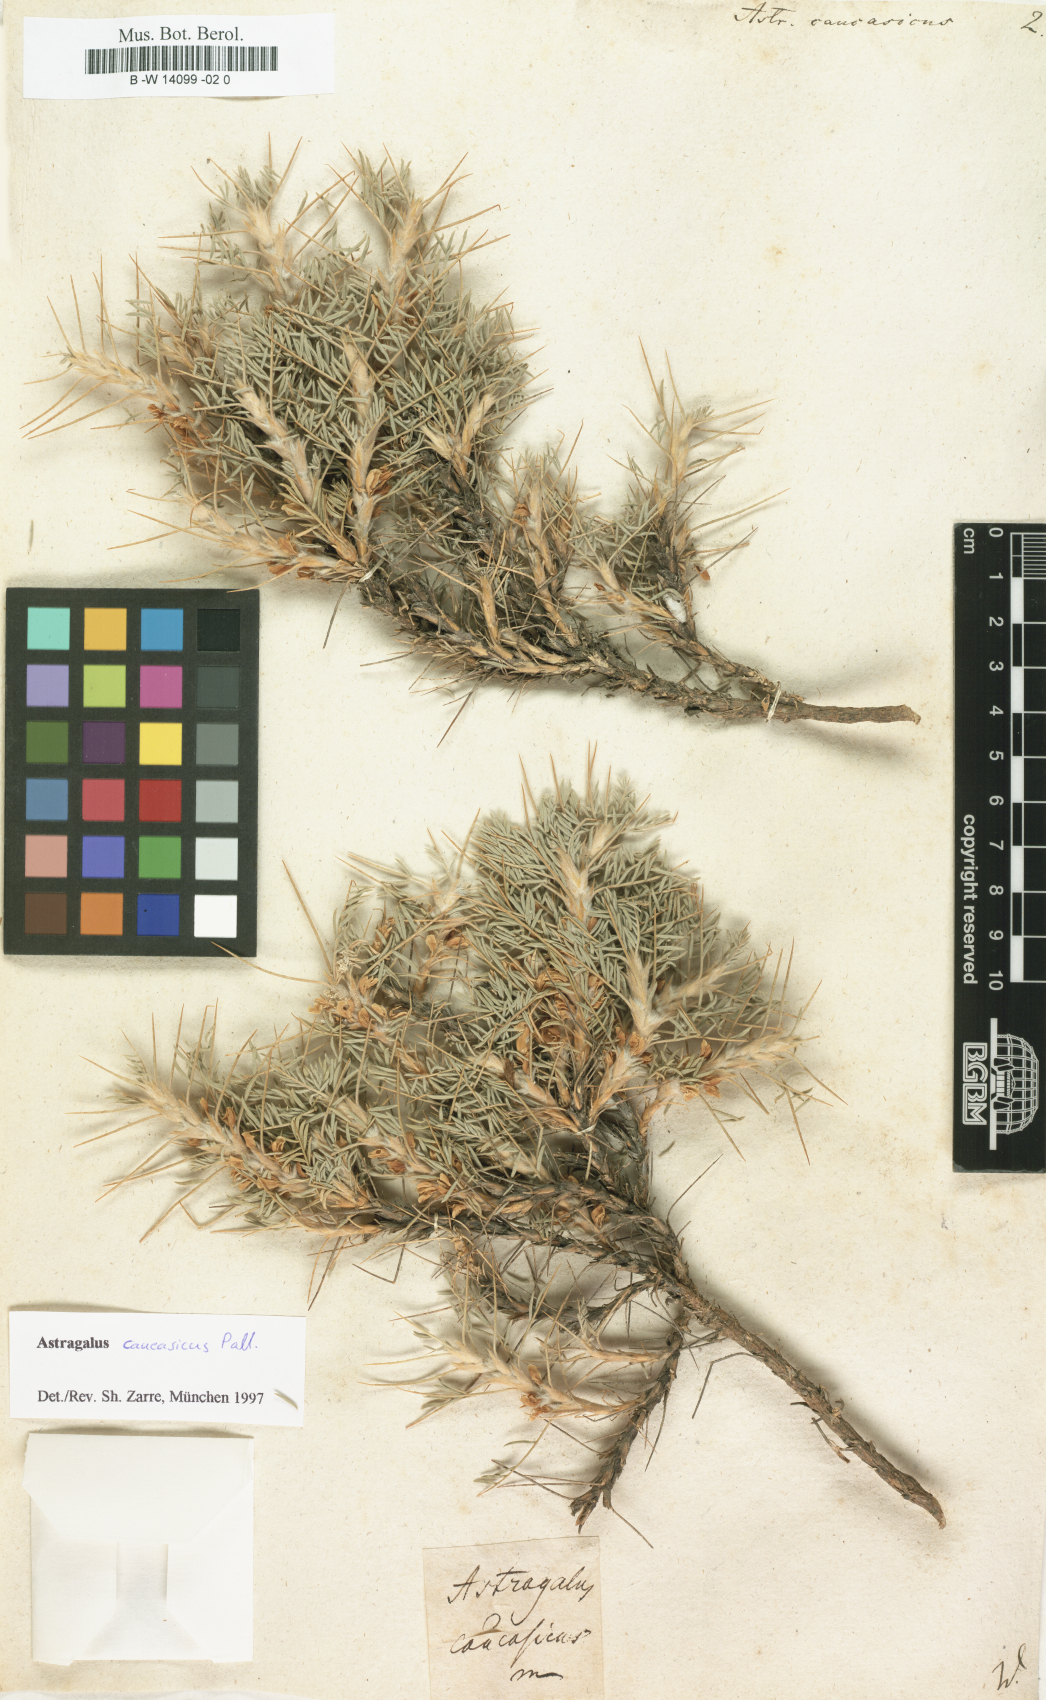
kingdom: Plantae
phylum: Tracheophyta
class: Magnoliopsida
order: Fabales
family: Fabaceae
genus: Astragalus
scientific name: Astragalus caucasicus
